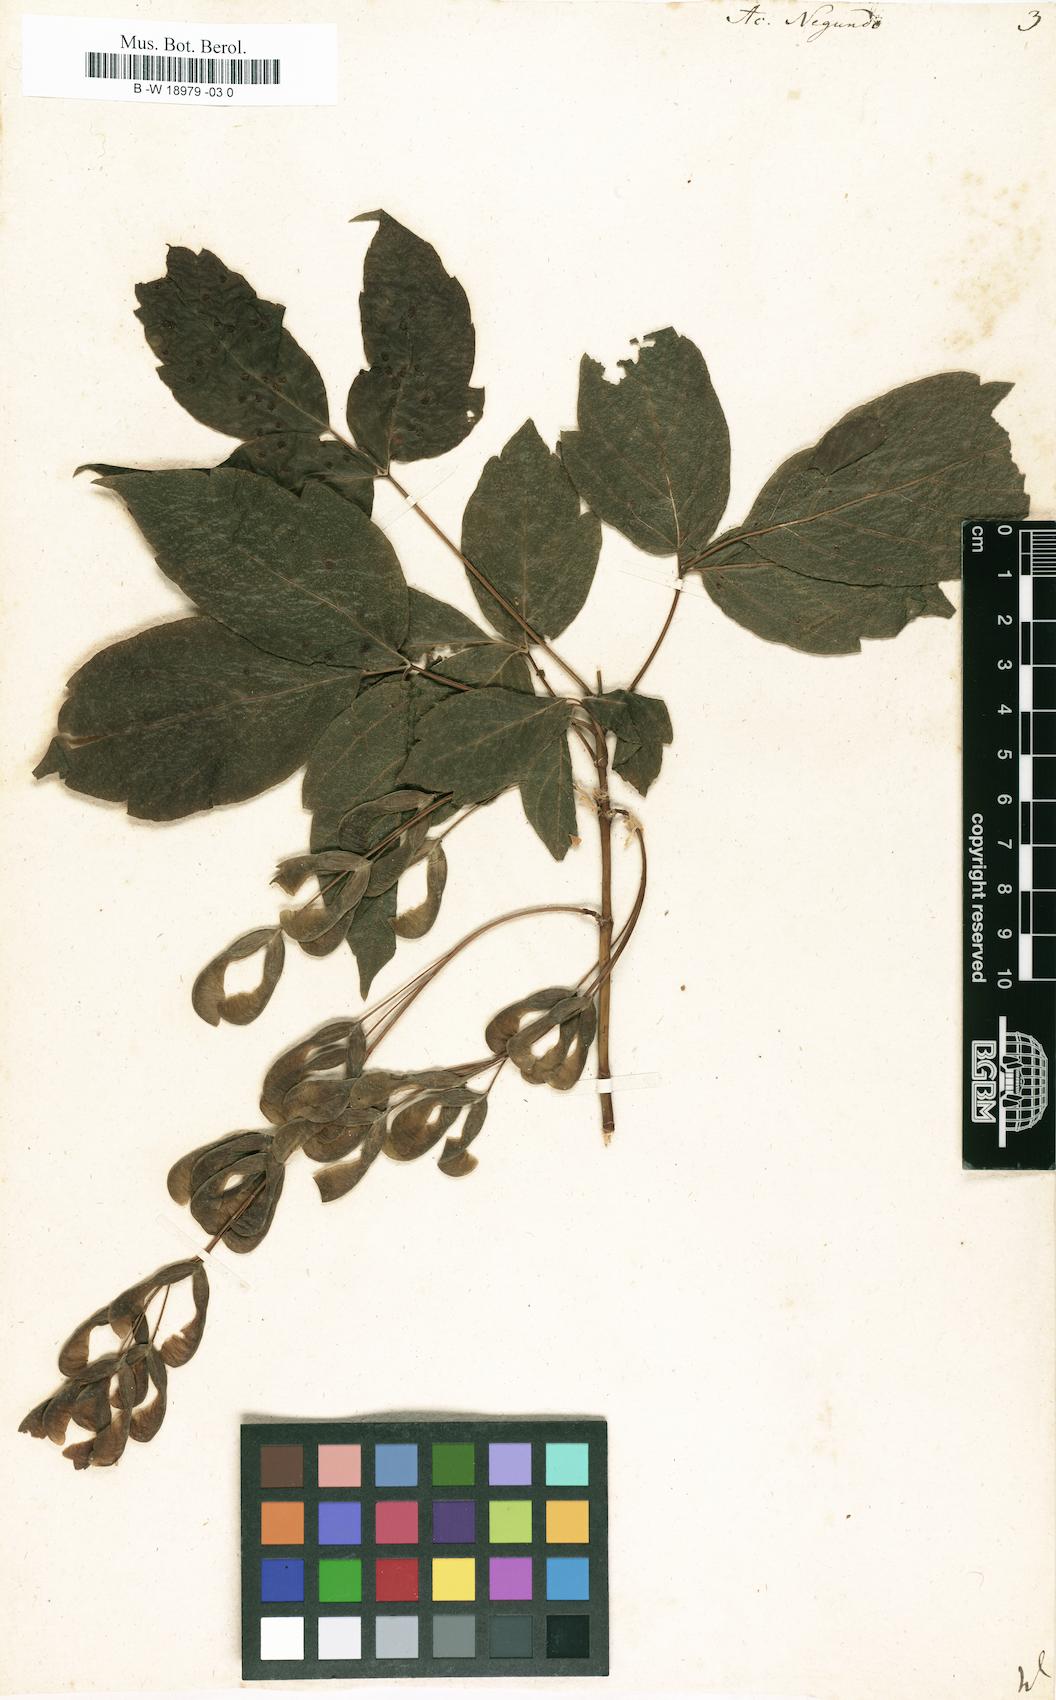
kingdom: Plantae
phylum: Tracheophyta
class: Magnoliopsida
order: Sapindales
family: Sapindaceae
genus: Acer
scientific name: Acer negundo
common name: Ashleaf maple
